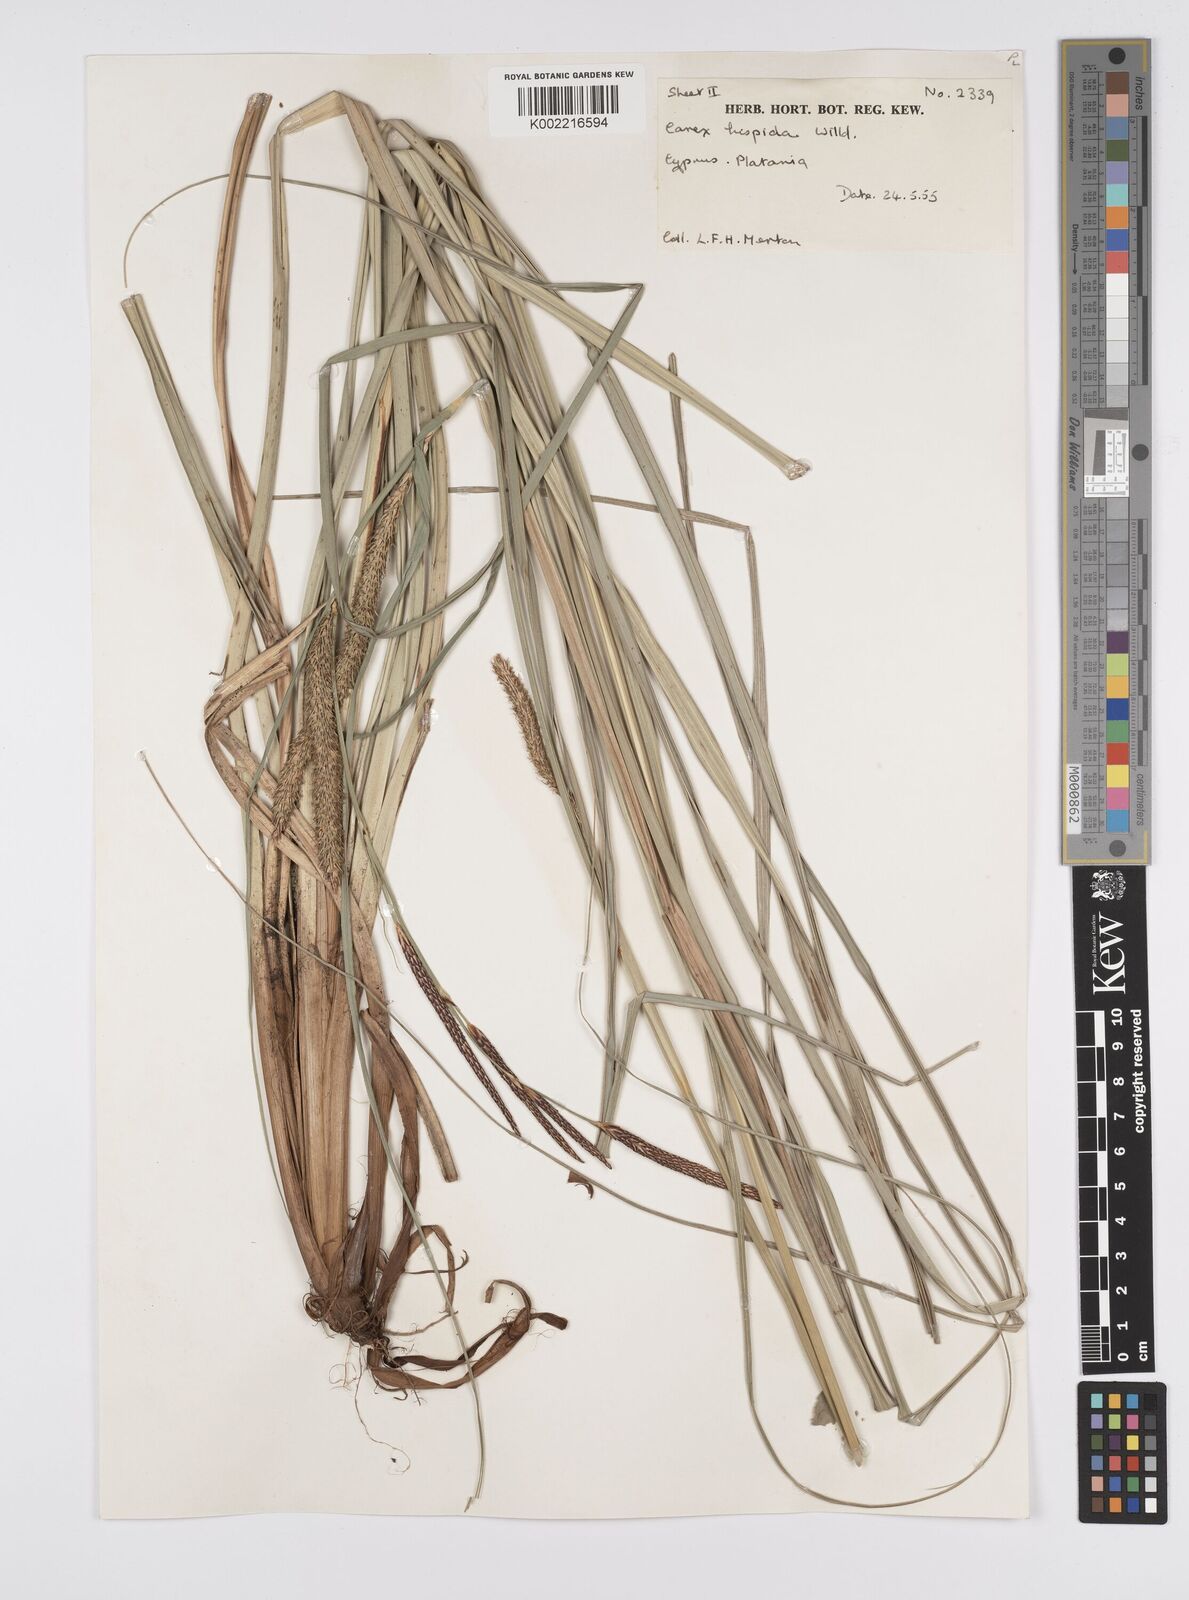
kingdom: Plantae
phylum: Tracheophyta
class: Liliopsida
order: Poales
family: Cyperaceae
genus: Carex
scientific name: Carex hispida
